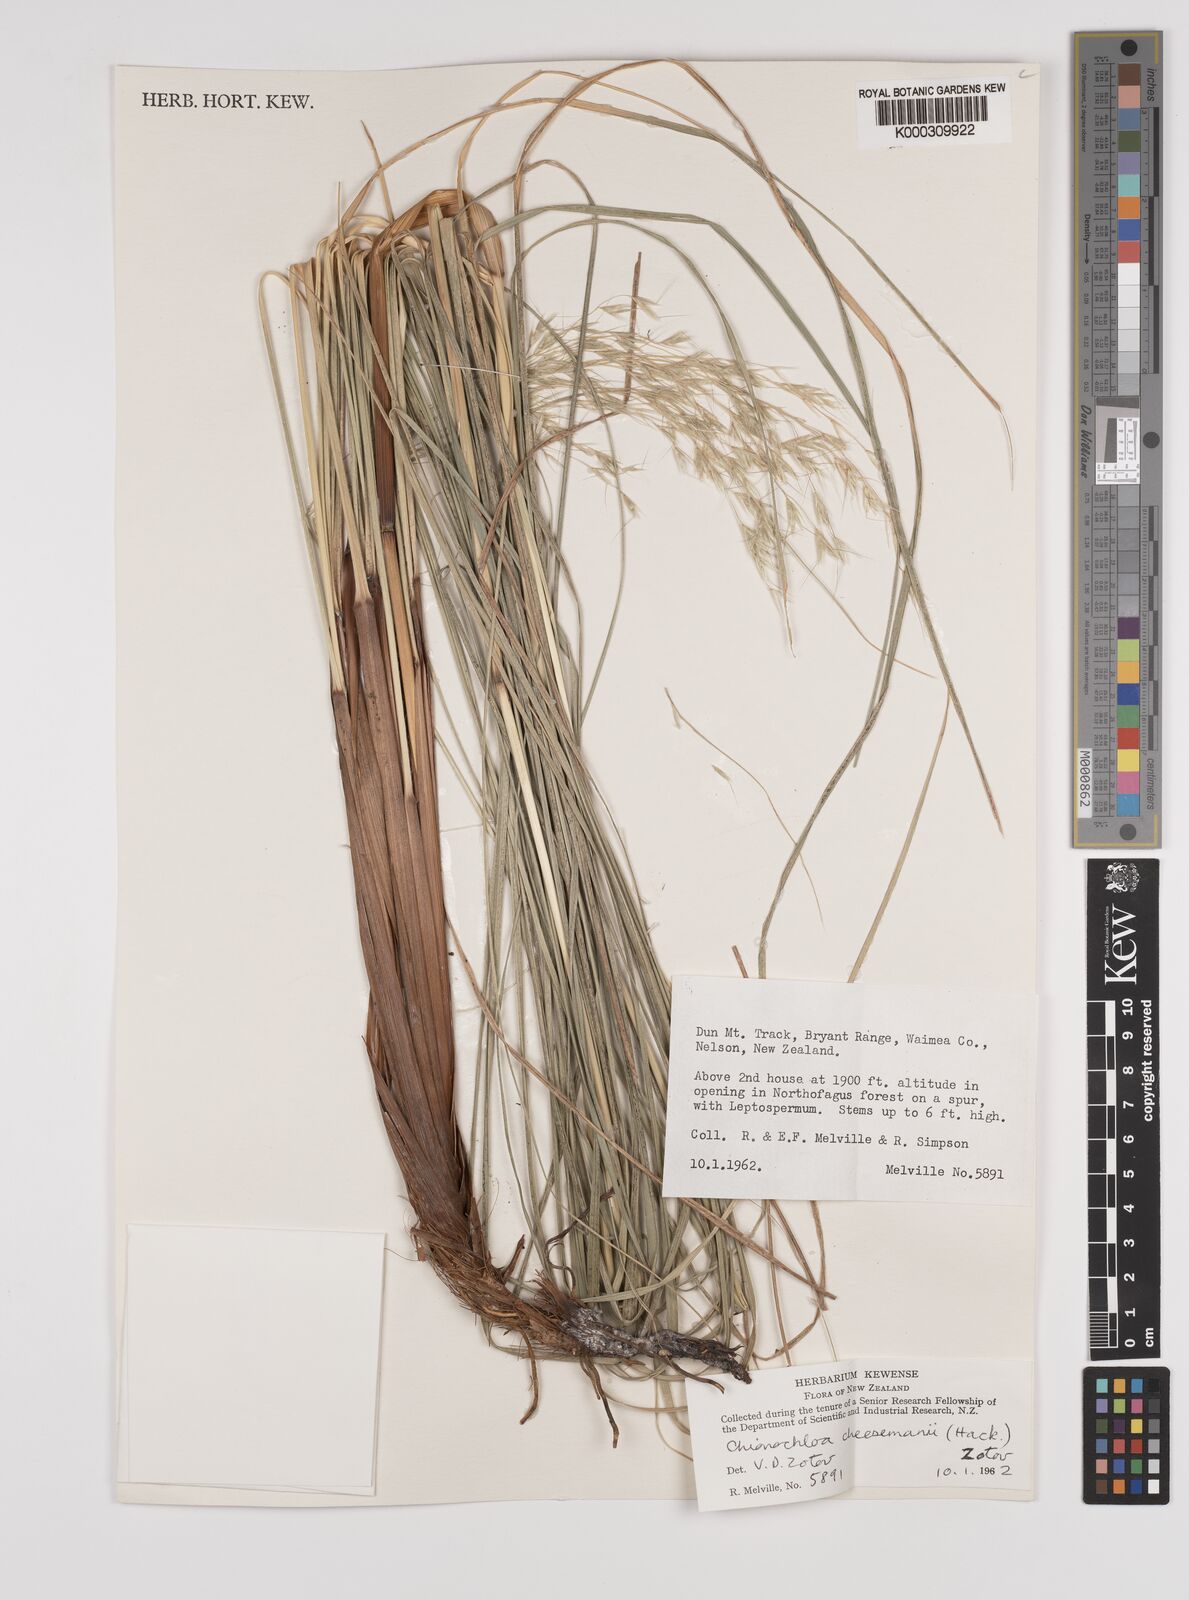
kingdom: Plantae
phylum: Tracheophyta
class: Liliopsida
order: Poales
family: Poaceae
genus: Chionochloa
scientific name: Chionochloa cheesemanii
